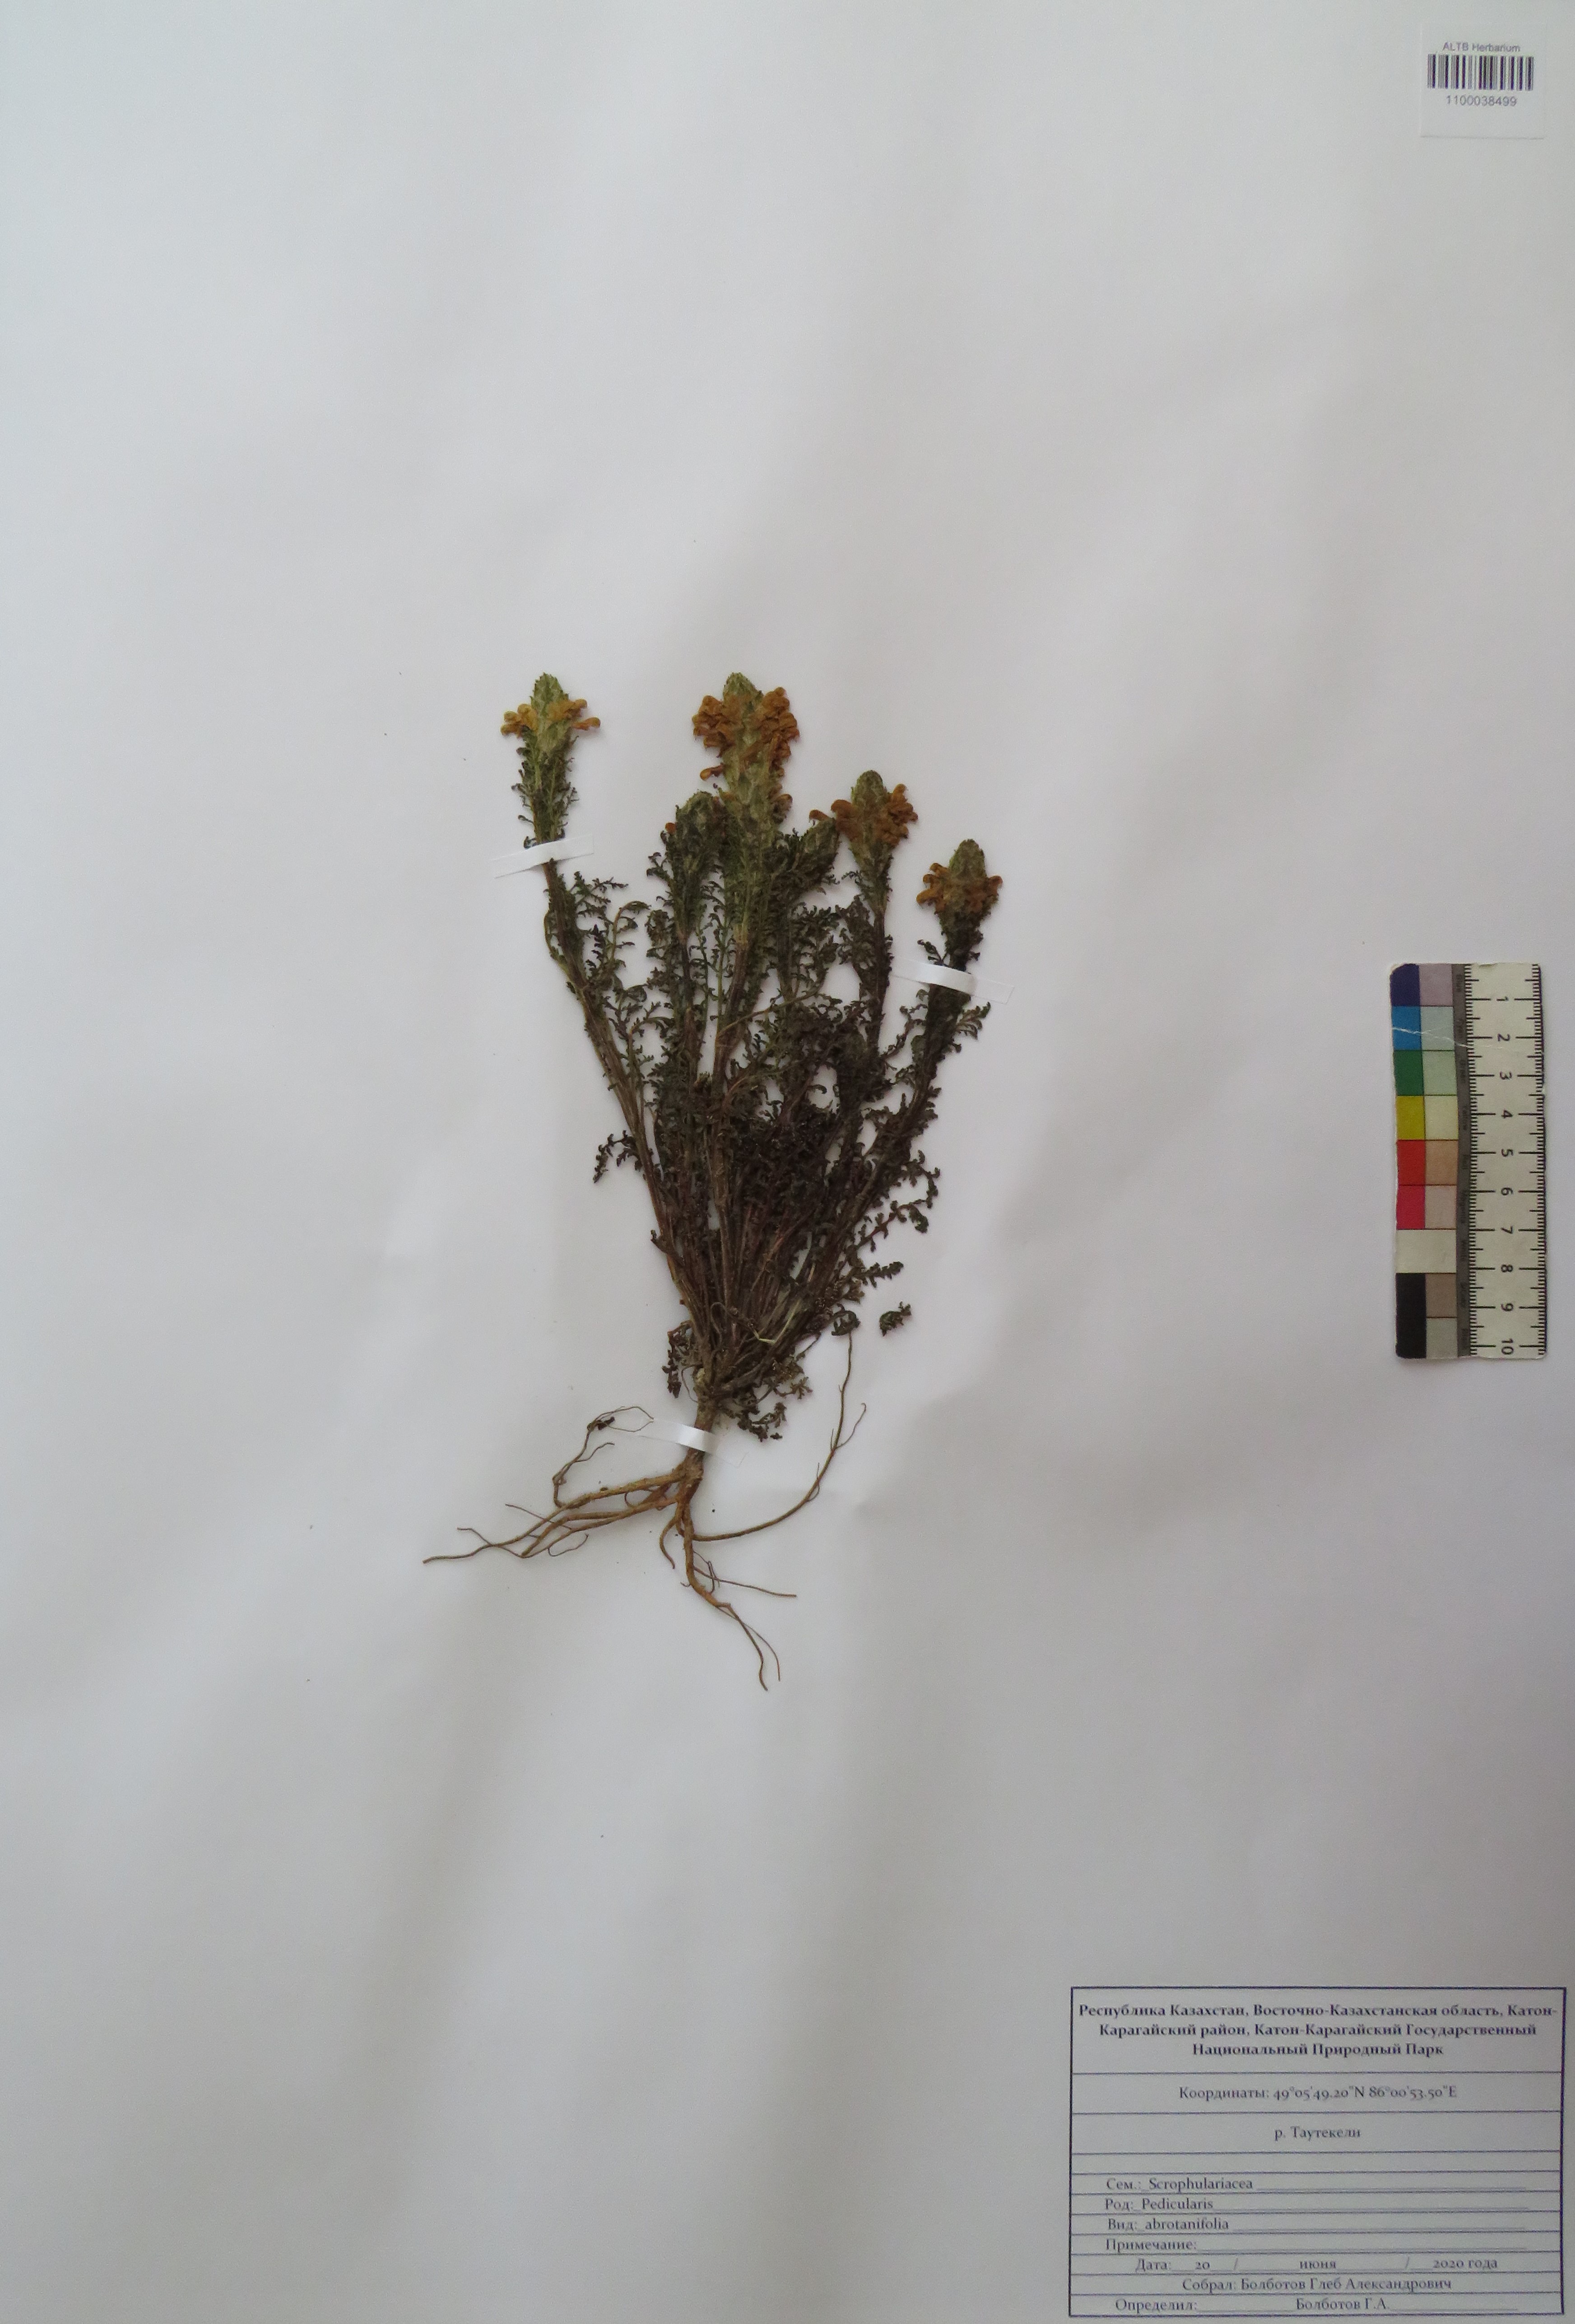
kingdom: Plantae
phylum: Tracheophyta
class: Magnoliopsida
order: Lamiales
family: Orobanchaceae
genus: Pedicularis
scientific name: Pedicularis abrotanifolia
